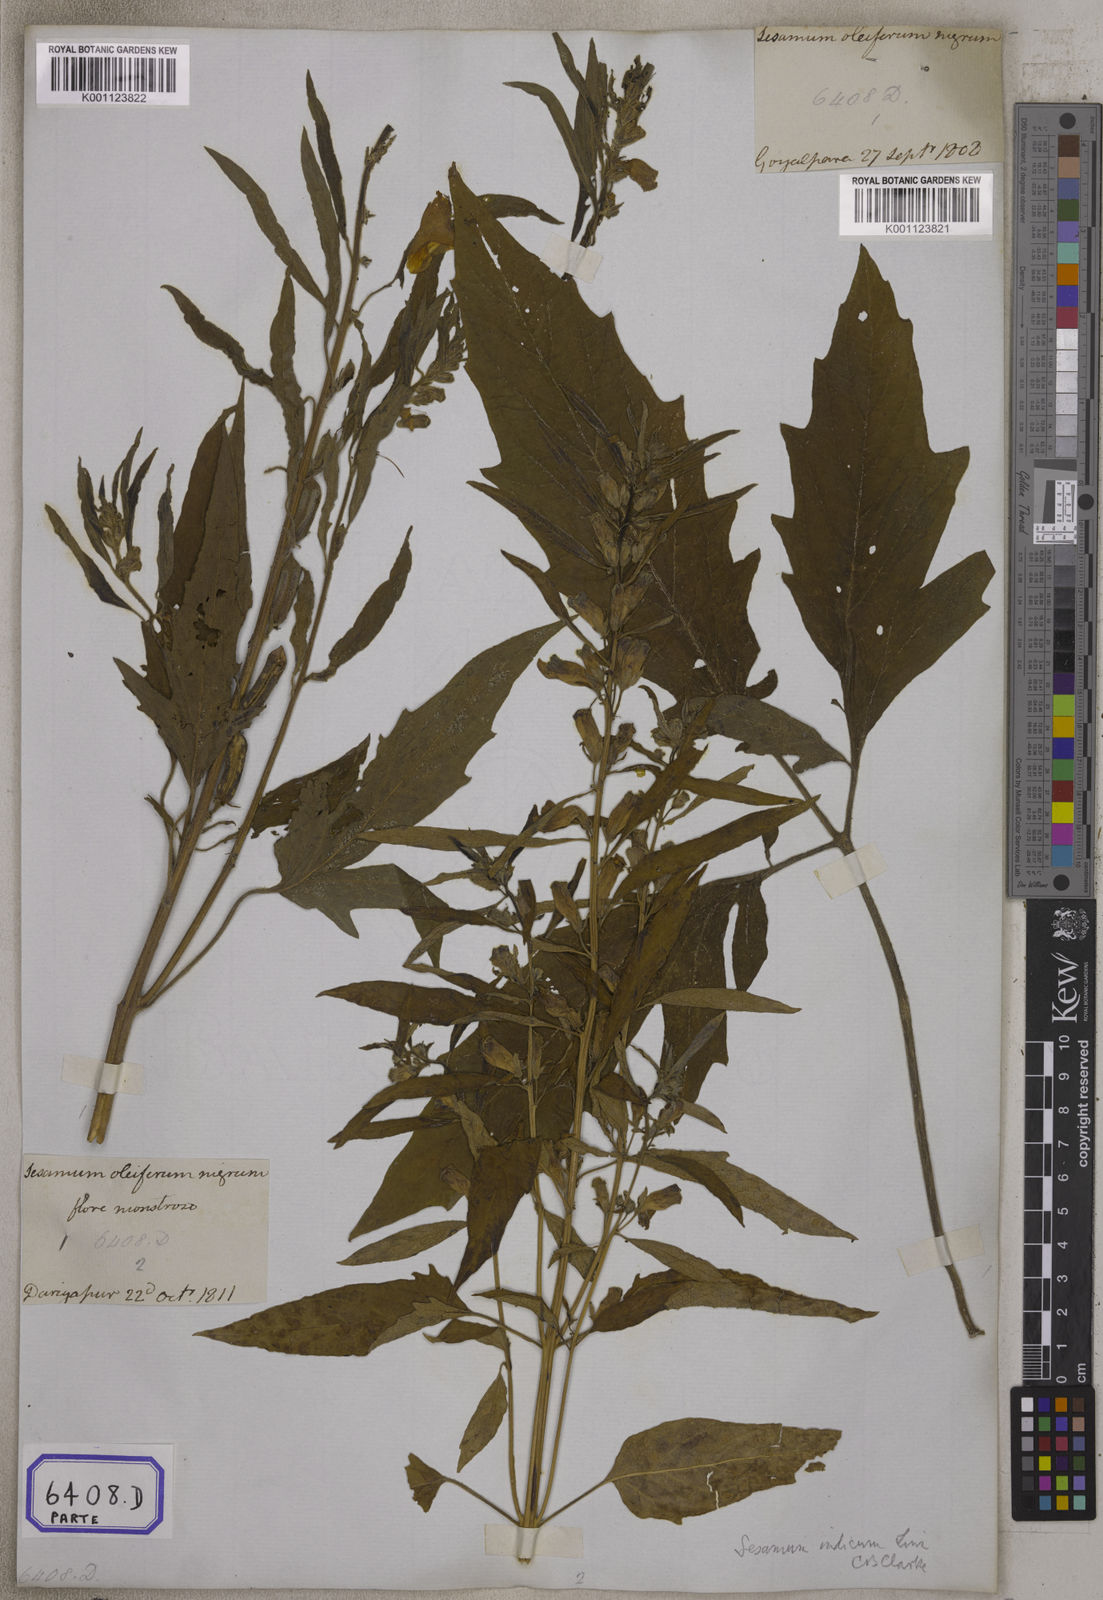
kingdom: Plantae
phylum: Tracheophyta
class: Magnoliopsida
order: Lamiales
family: Pedaliaceae
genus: Sesamum
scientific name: Sesamum indicum
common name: Sesame
